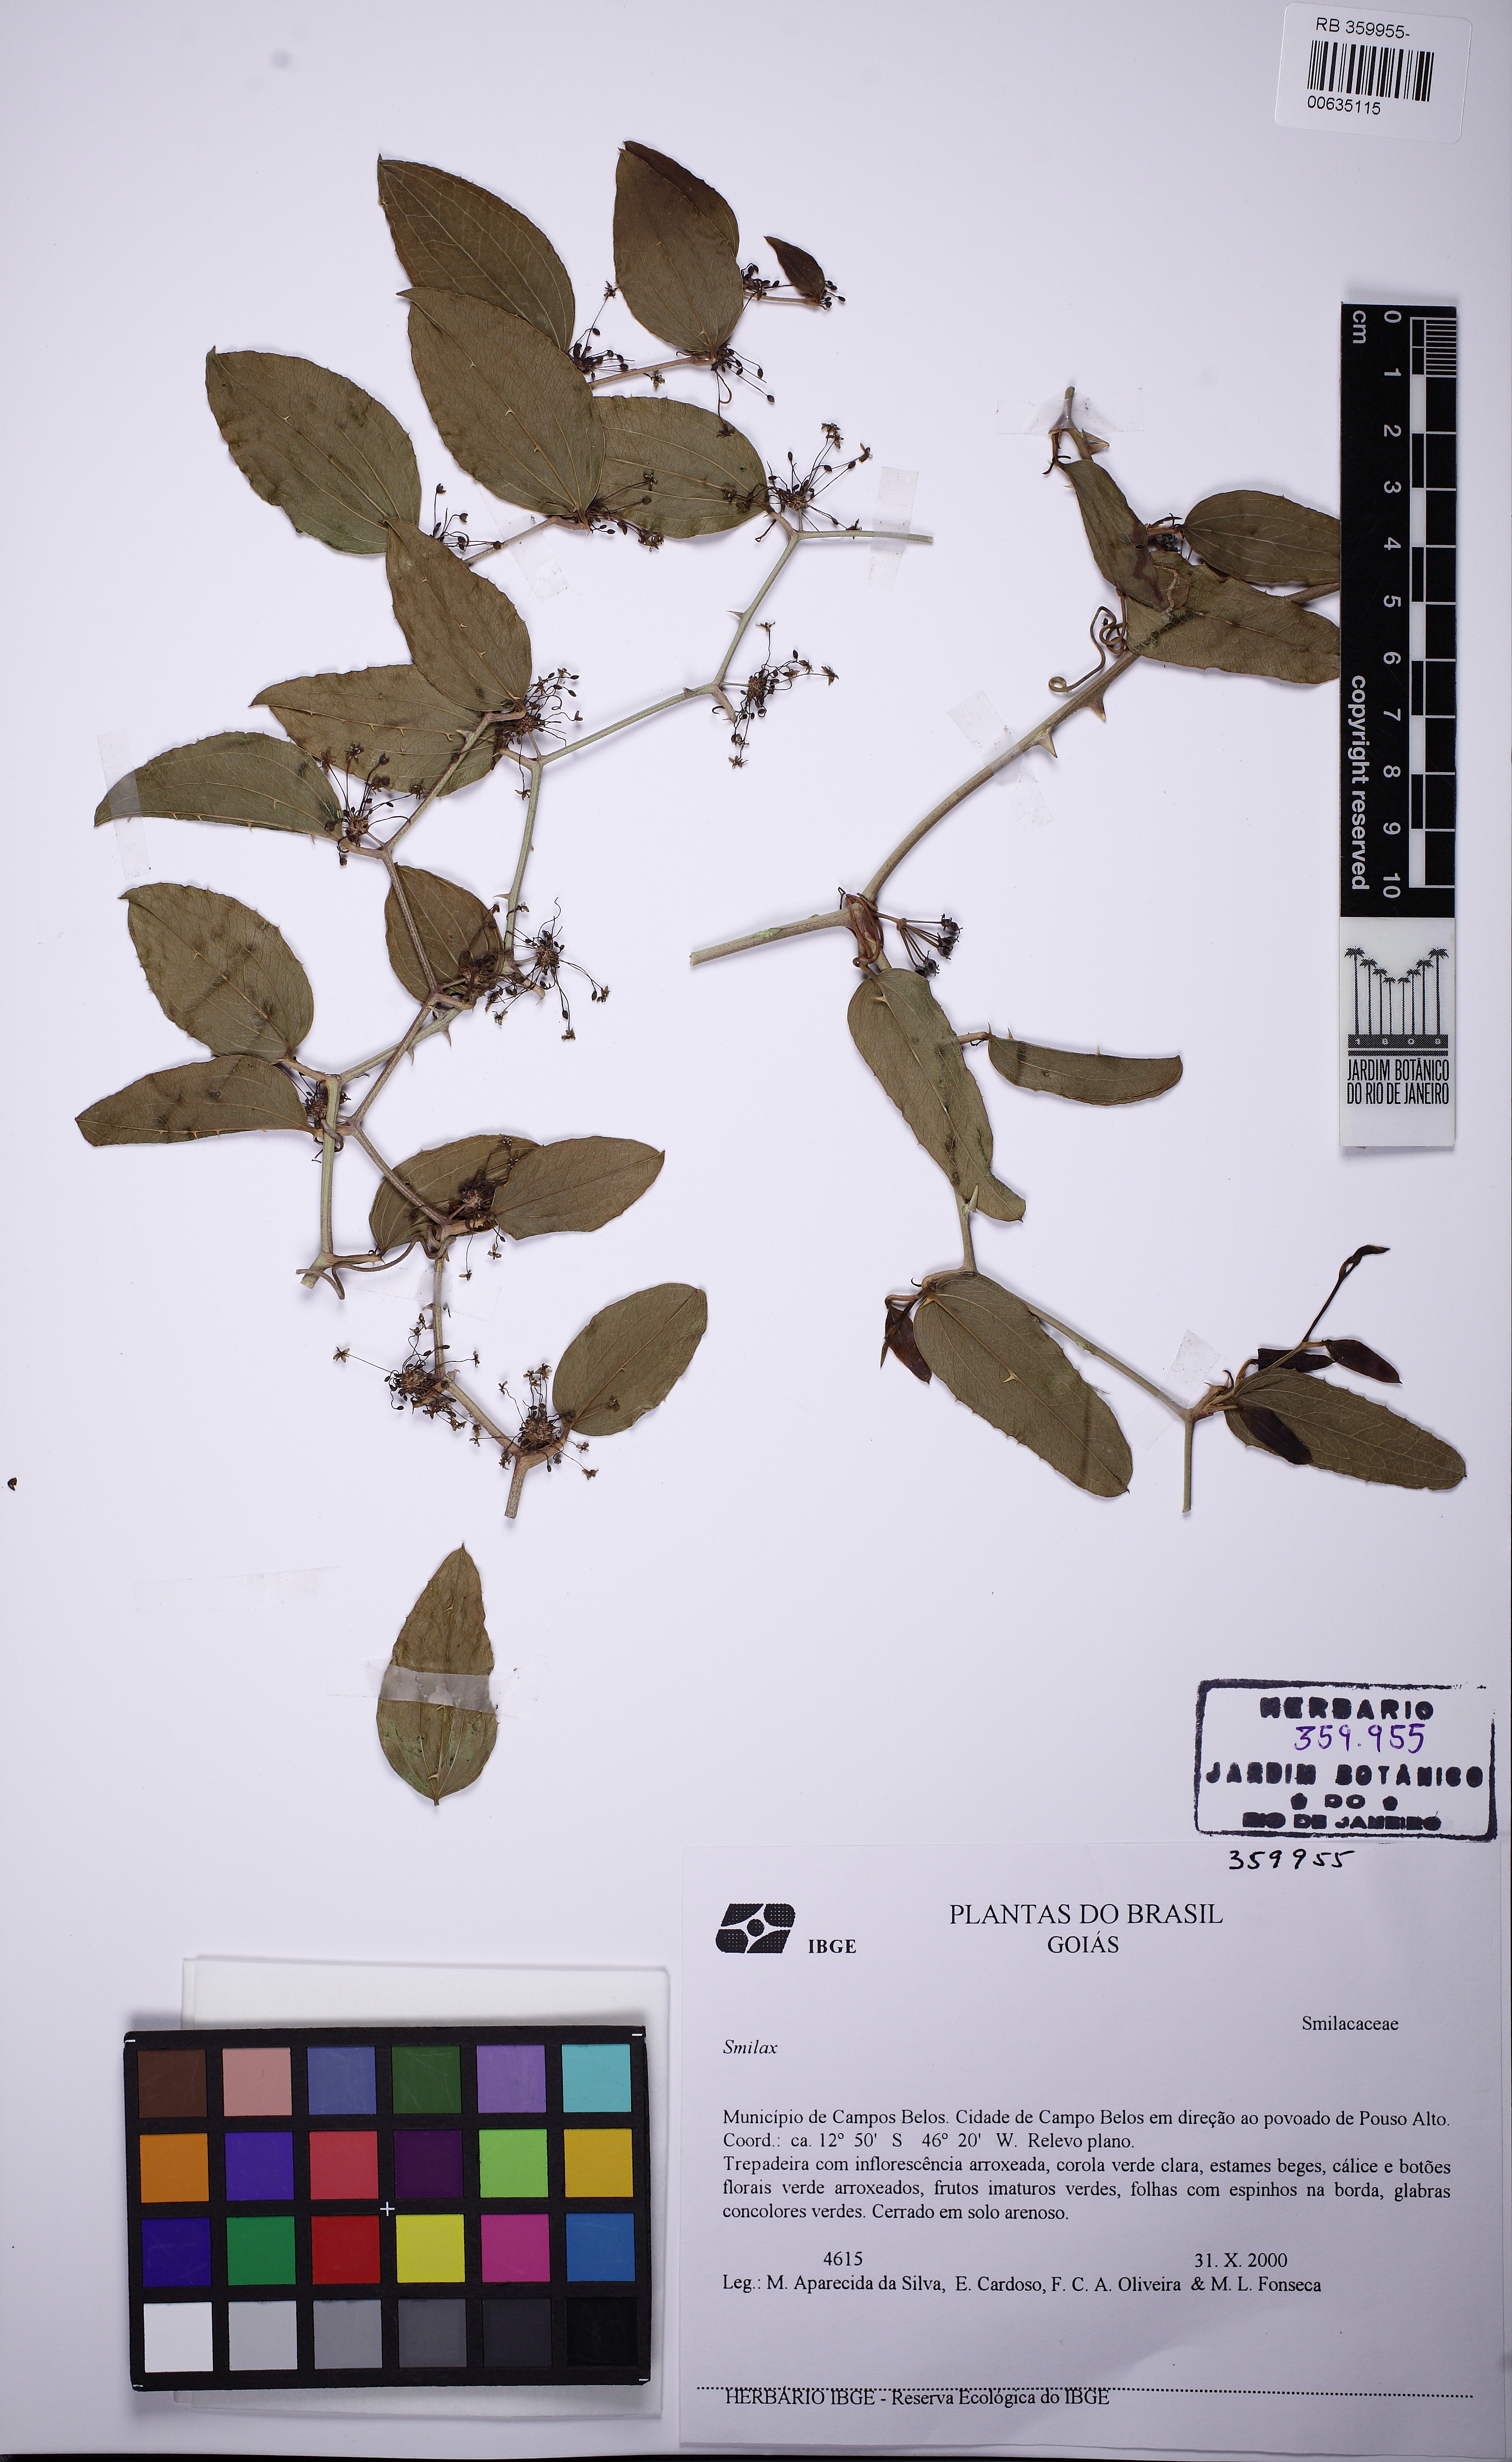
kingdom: Plantae
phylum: Tracheophyta
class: Liliopsida
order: Liliales
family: Smilacaceae
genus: Smilax
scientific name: Smilax
